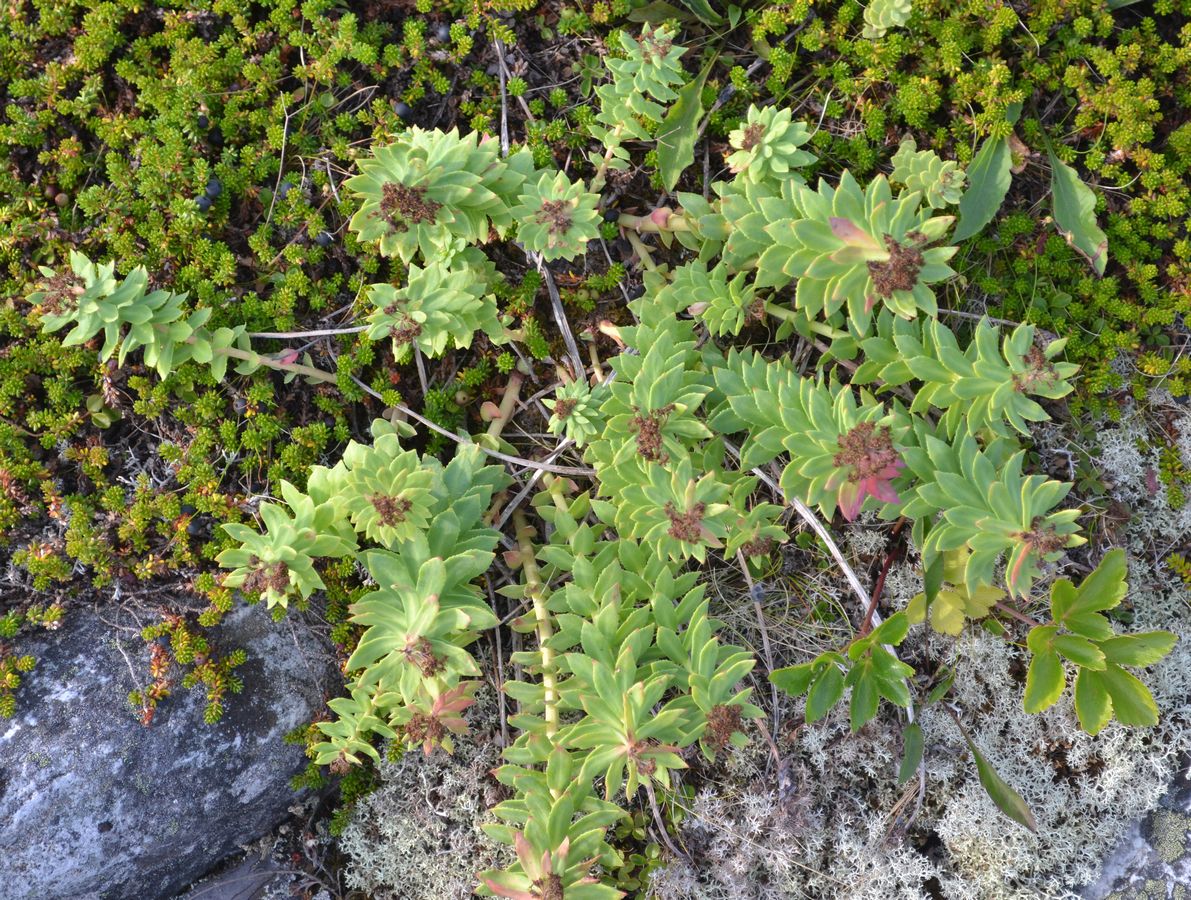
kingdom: Plantae
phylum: Tracheophyta
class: Magnoliopsida
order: Saxifragales
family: Crassulaceae
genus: Rhodiola
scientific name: Rhodiola rosea
